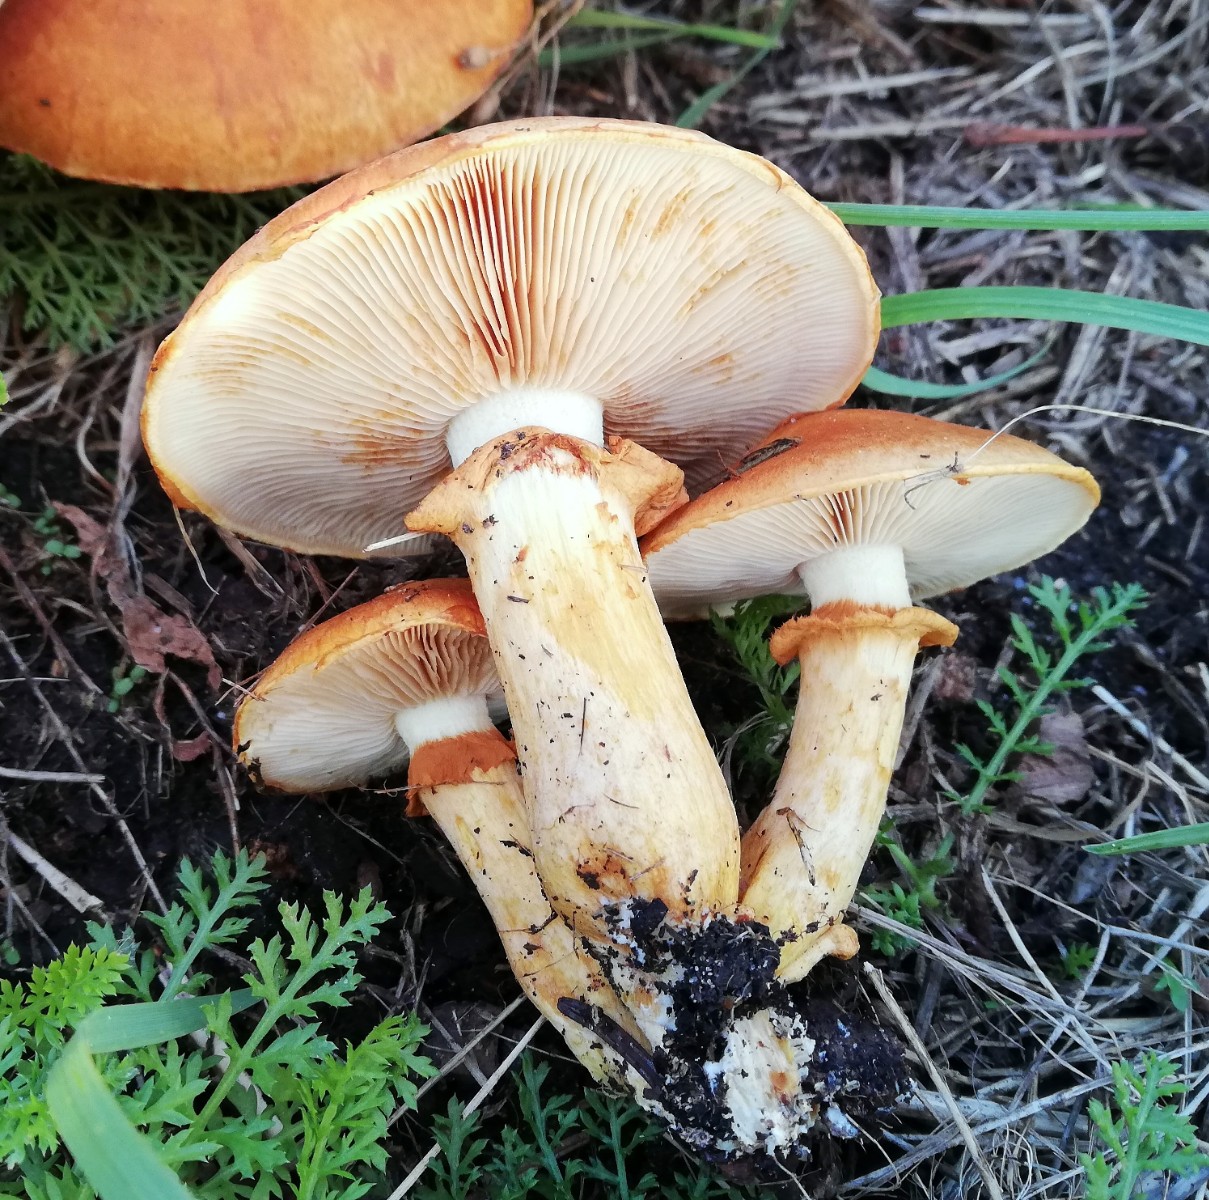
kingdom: Fungi
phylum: Basidiomycota
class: Agaricomycetes
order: Agaricales
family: Hymenogastraceae
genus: Gymnopilus
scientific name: Gymnopilus spectabilis
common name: fibret flammehat
